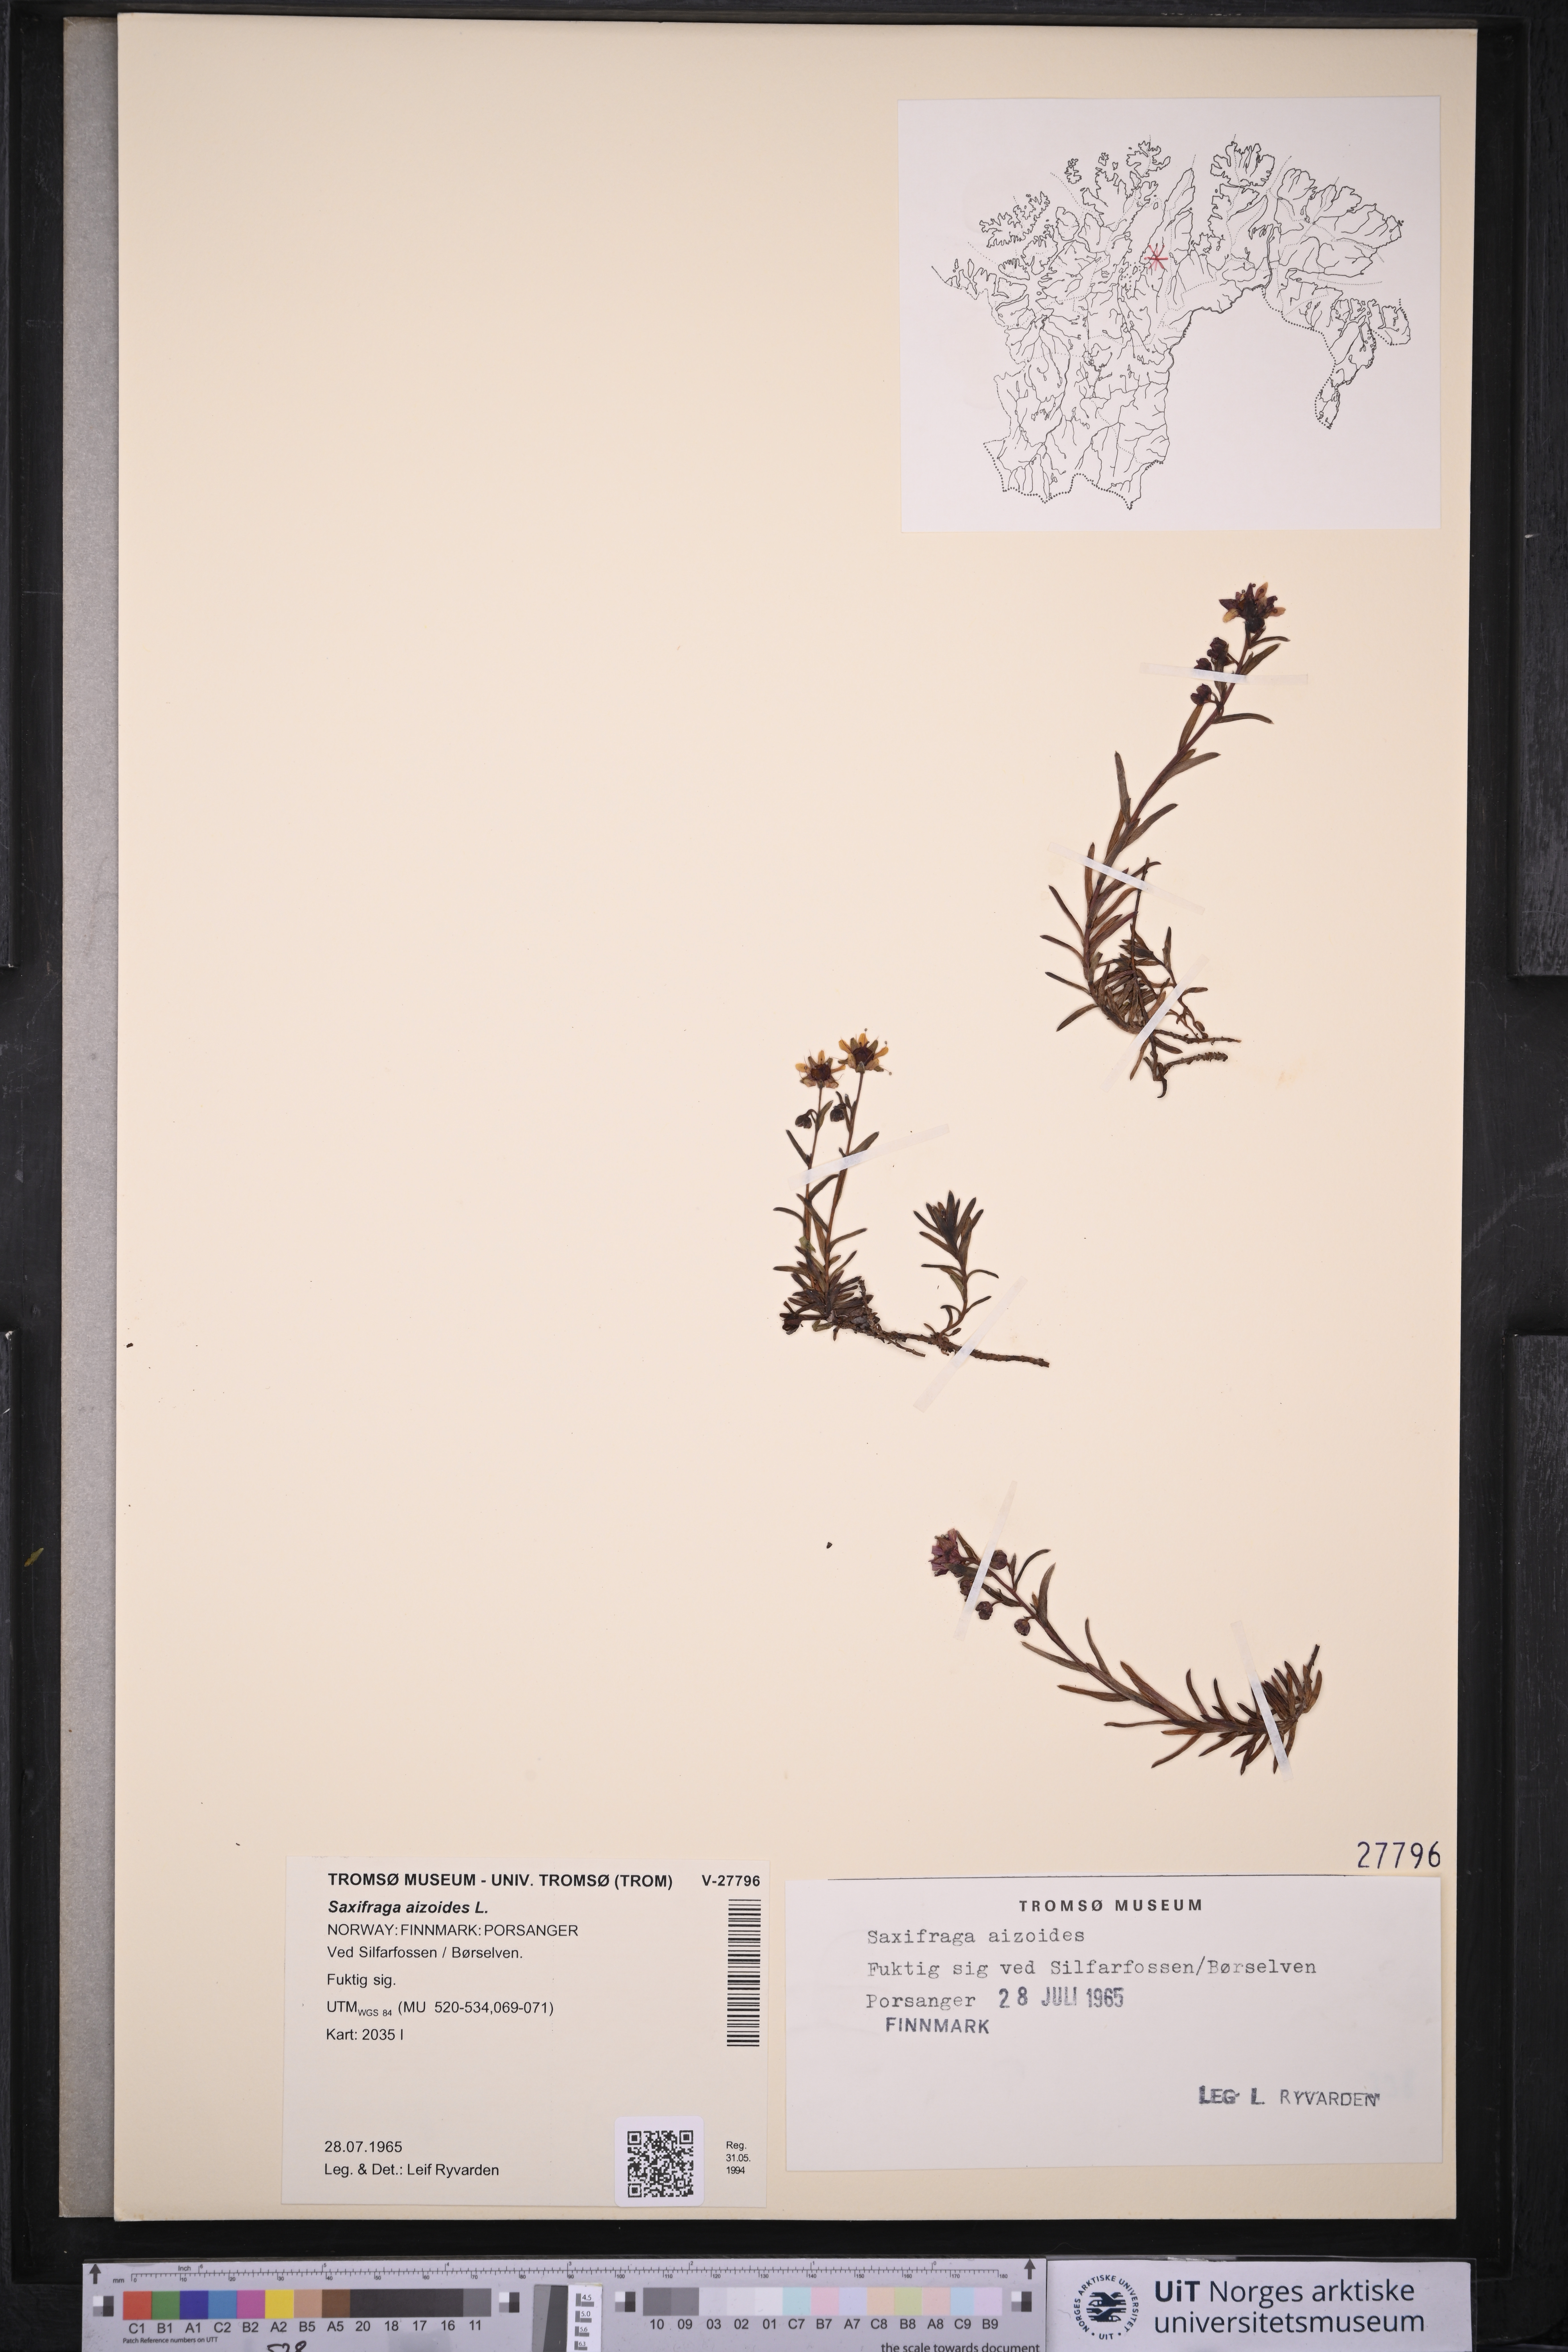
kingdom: Plantae
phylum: Tracheophyta
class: Magnoliopsida
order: Saxifragales
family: Saxifragaceae
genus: Saxifraga
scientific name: Saxifraga aizoides
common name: Yellow mountain saxifrage
